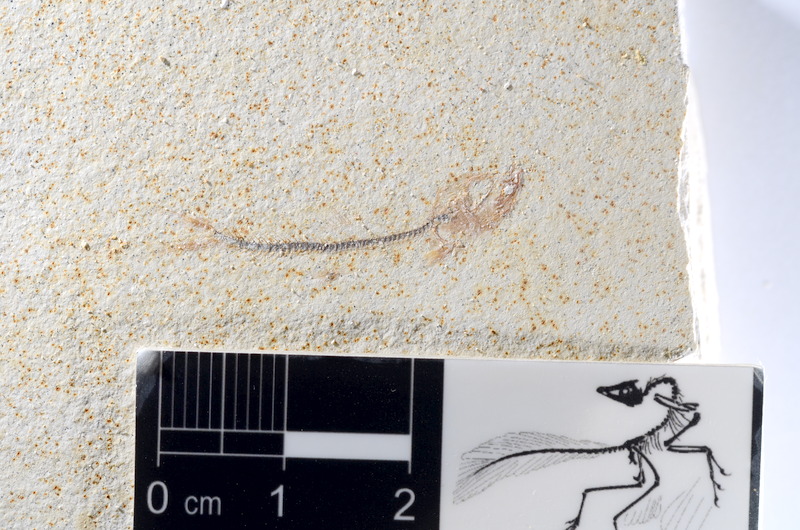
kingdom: Animalia
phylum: Chordata
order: Salmoniformes
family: Orthogonikleithridae
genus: Orthogonikleithrus
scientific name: Orthogonikleithrus hoelli
